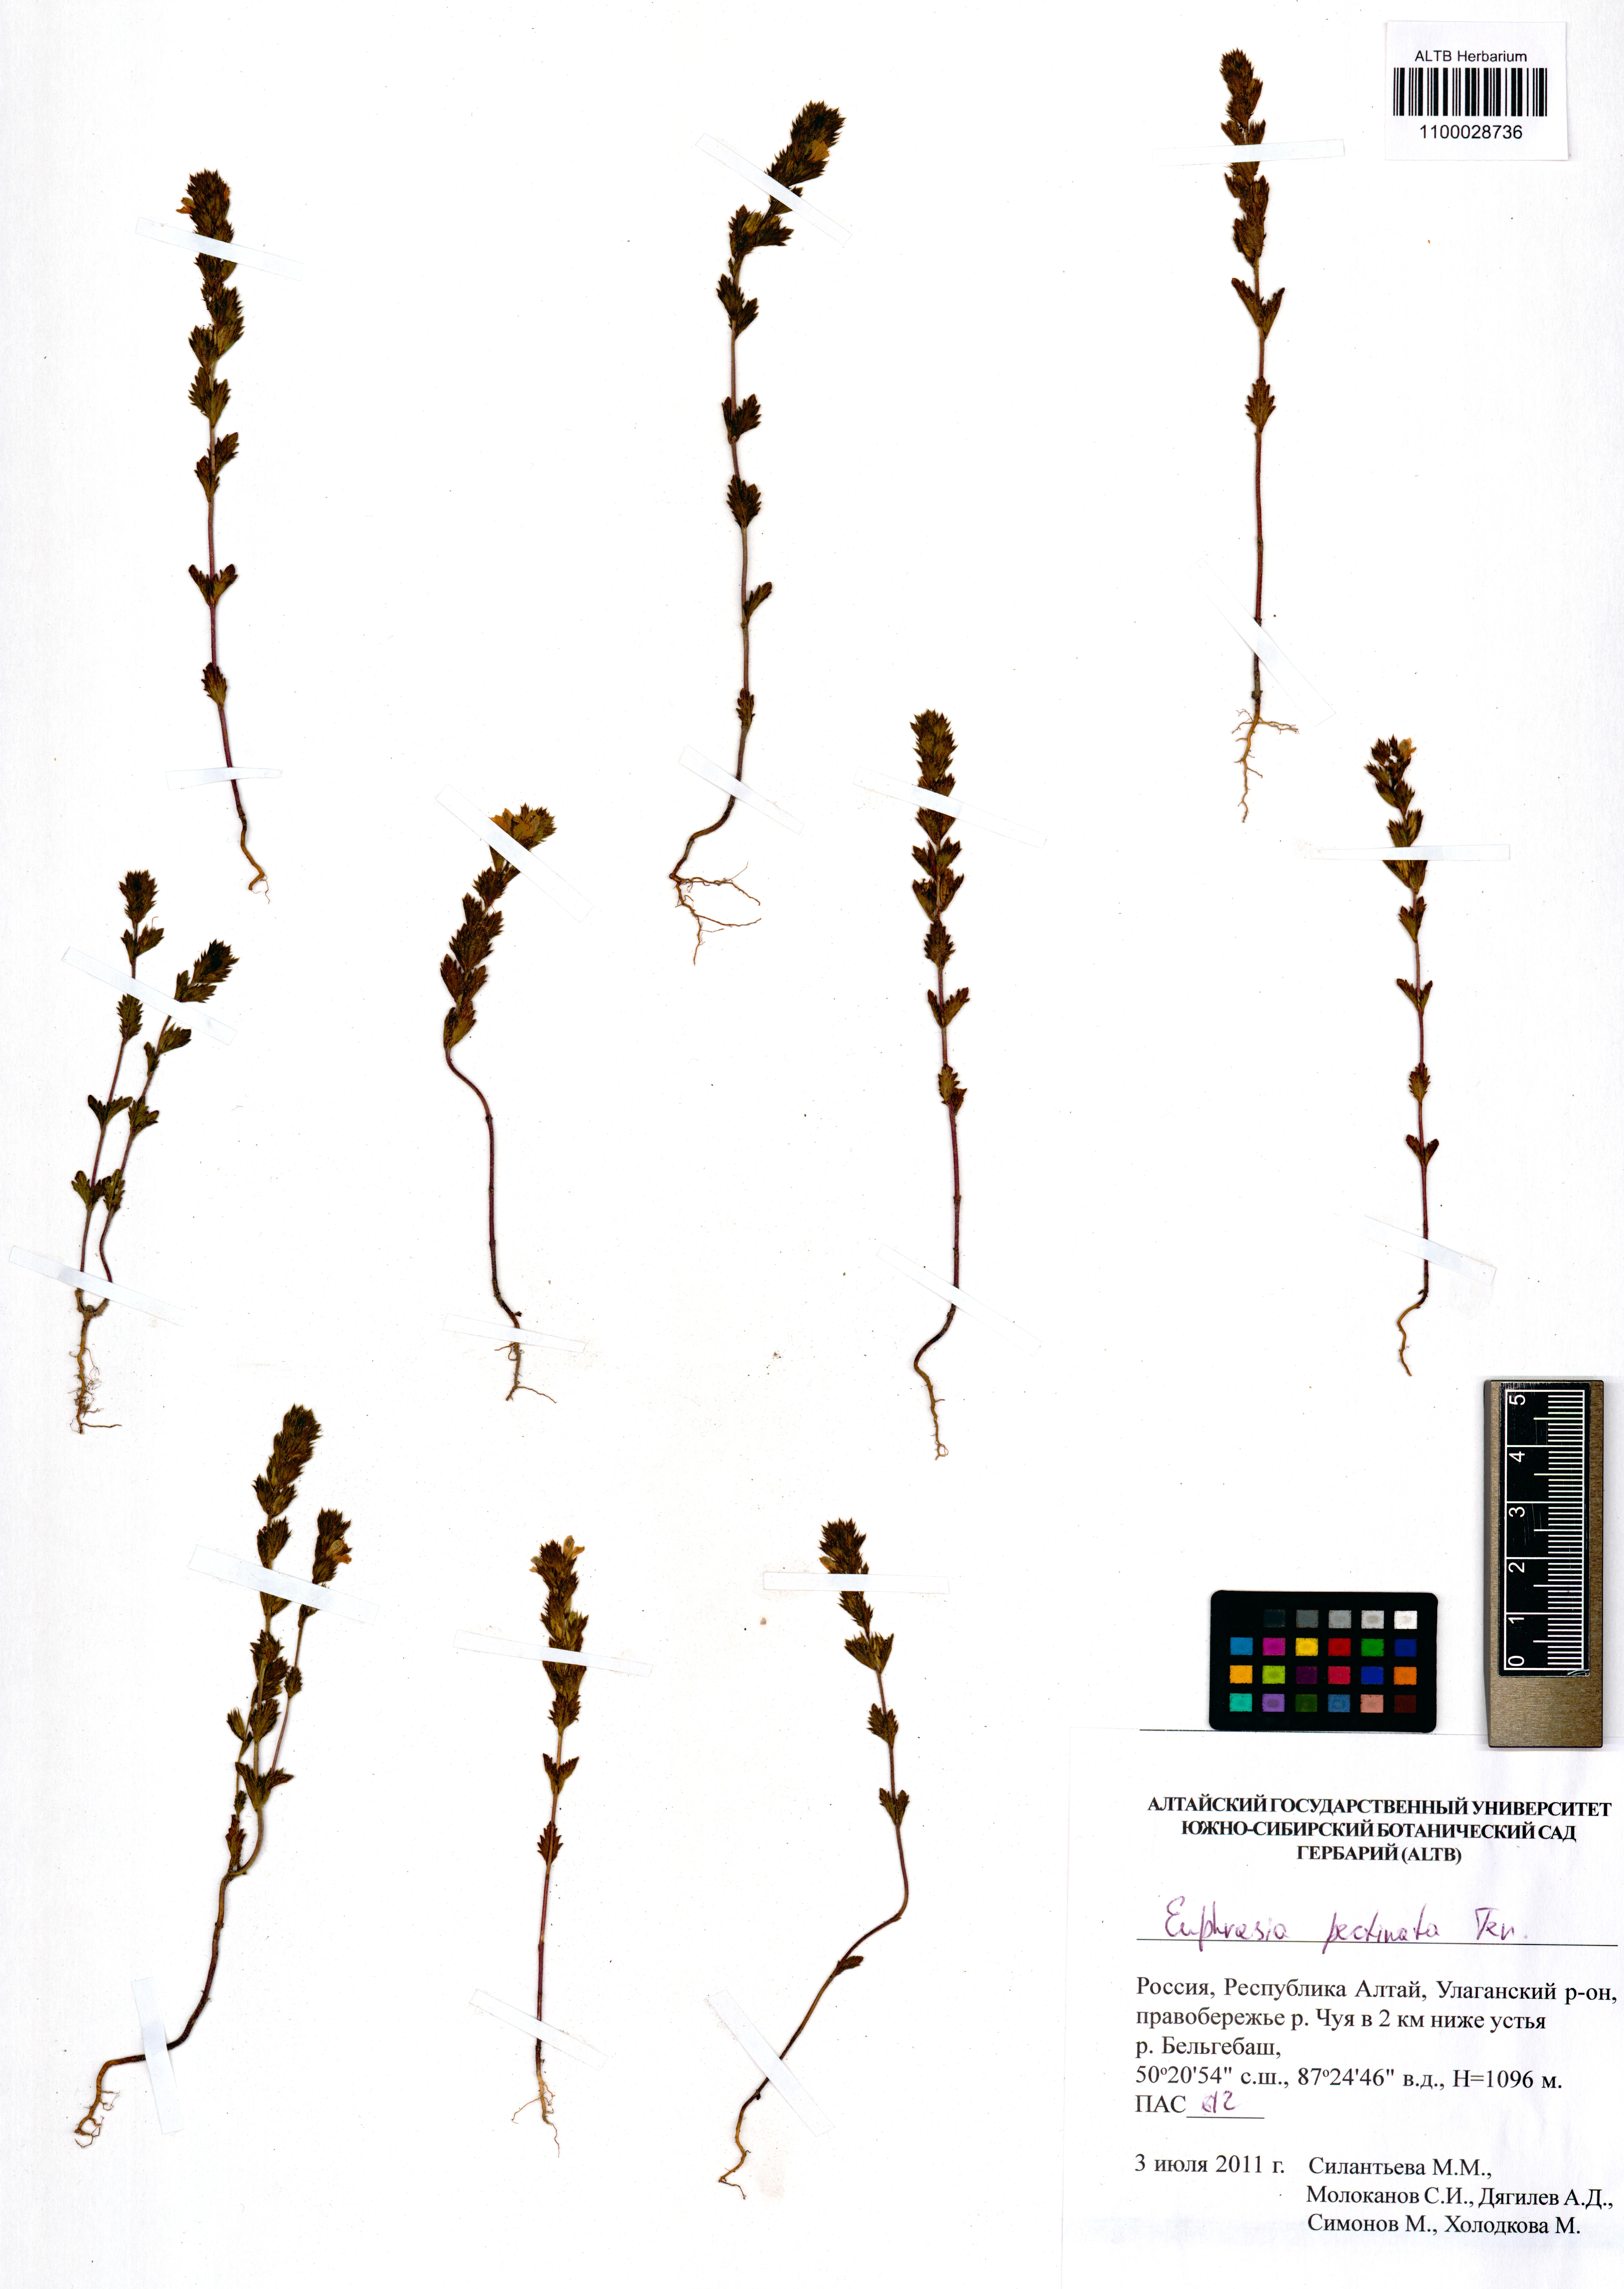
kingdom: Plantae
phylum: Tracheophyta
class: Magnoliopsida
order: Lamiales
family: Orobanchaceae
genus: Euphrasia
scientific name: Euphrasia pectinata
